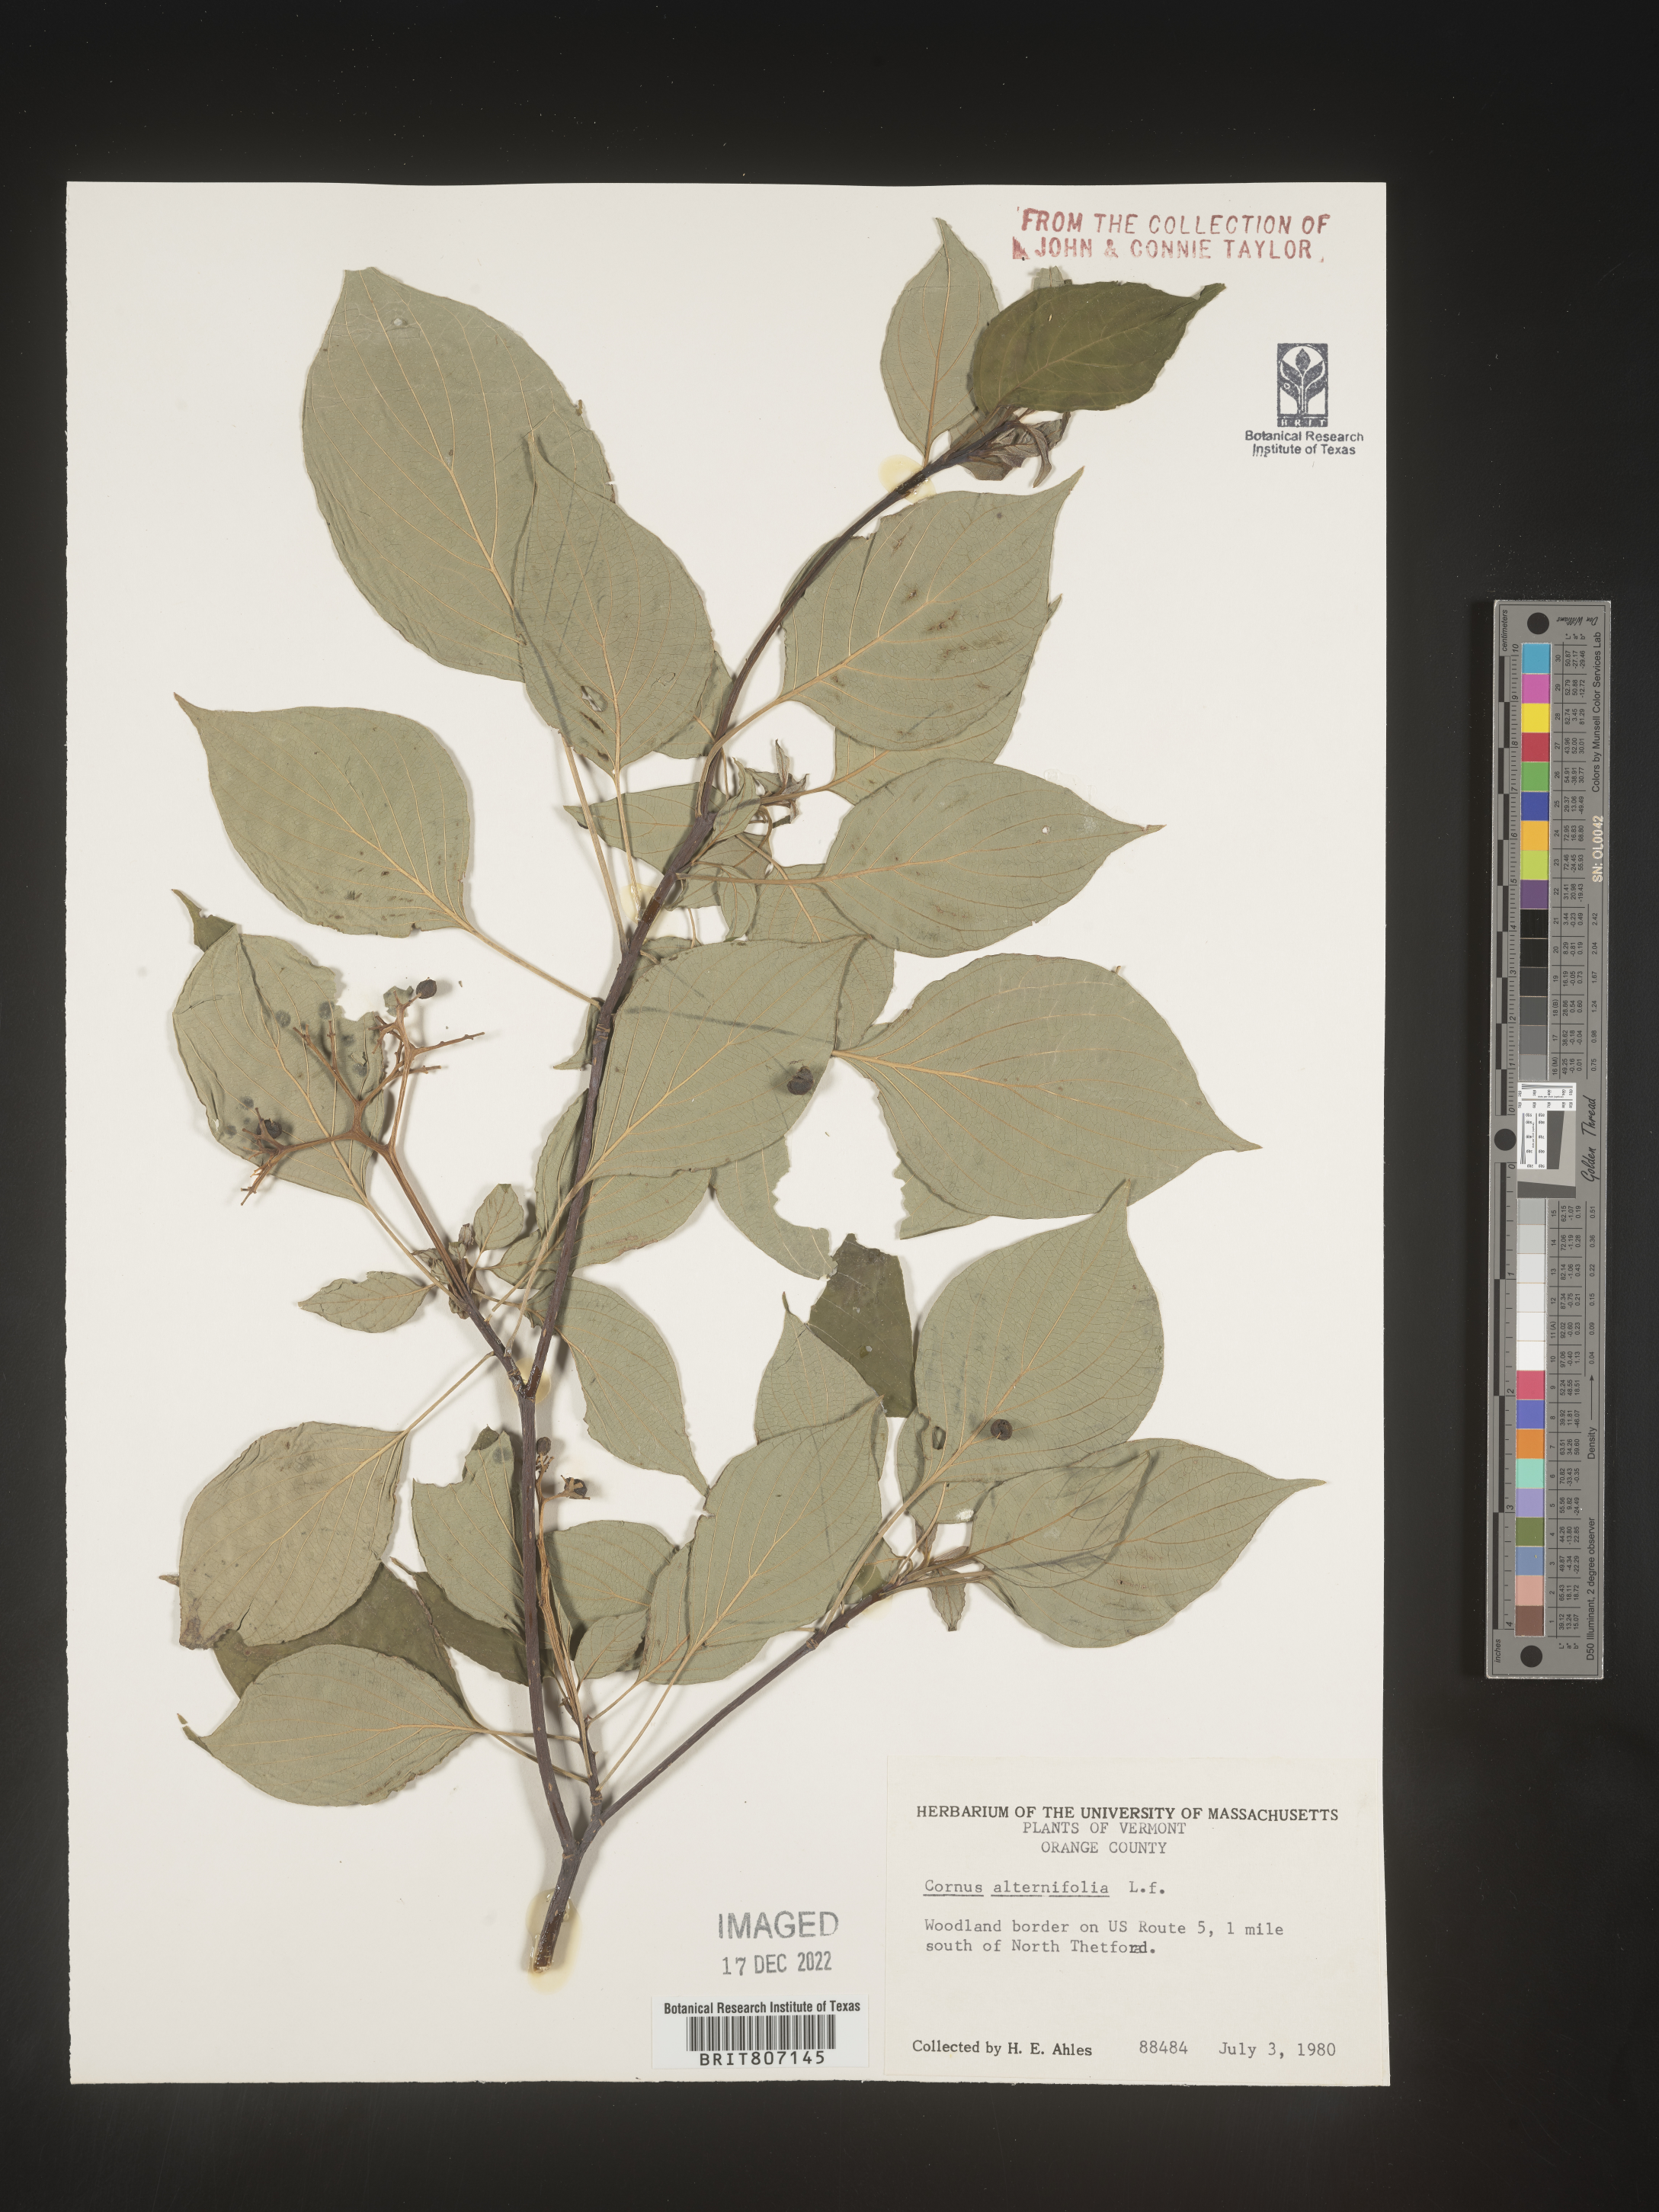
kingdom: Plantae
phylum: Tracheophyta
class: Magnoliopsida
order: Cornales
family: Cornaceae
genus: Cornus
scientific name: Cornus alternifolia
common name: Pagoda dogwood
